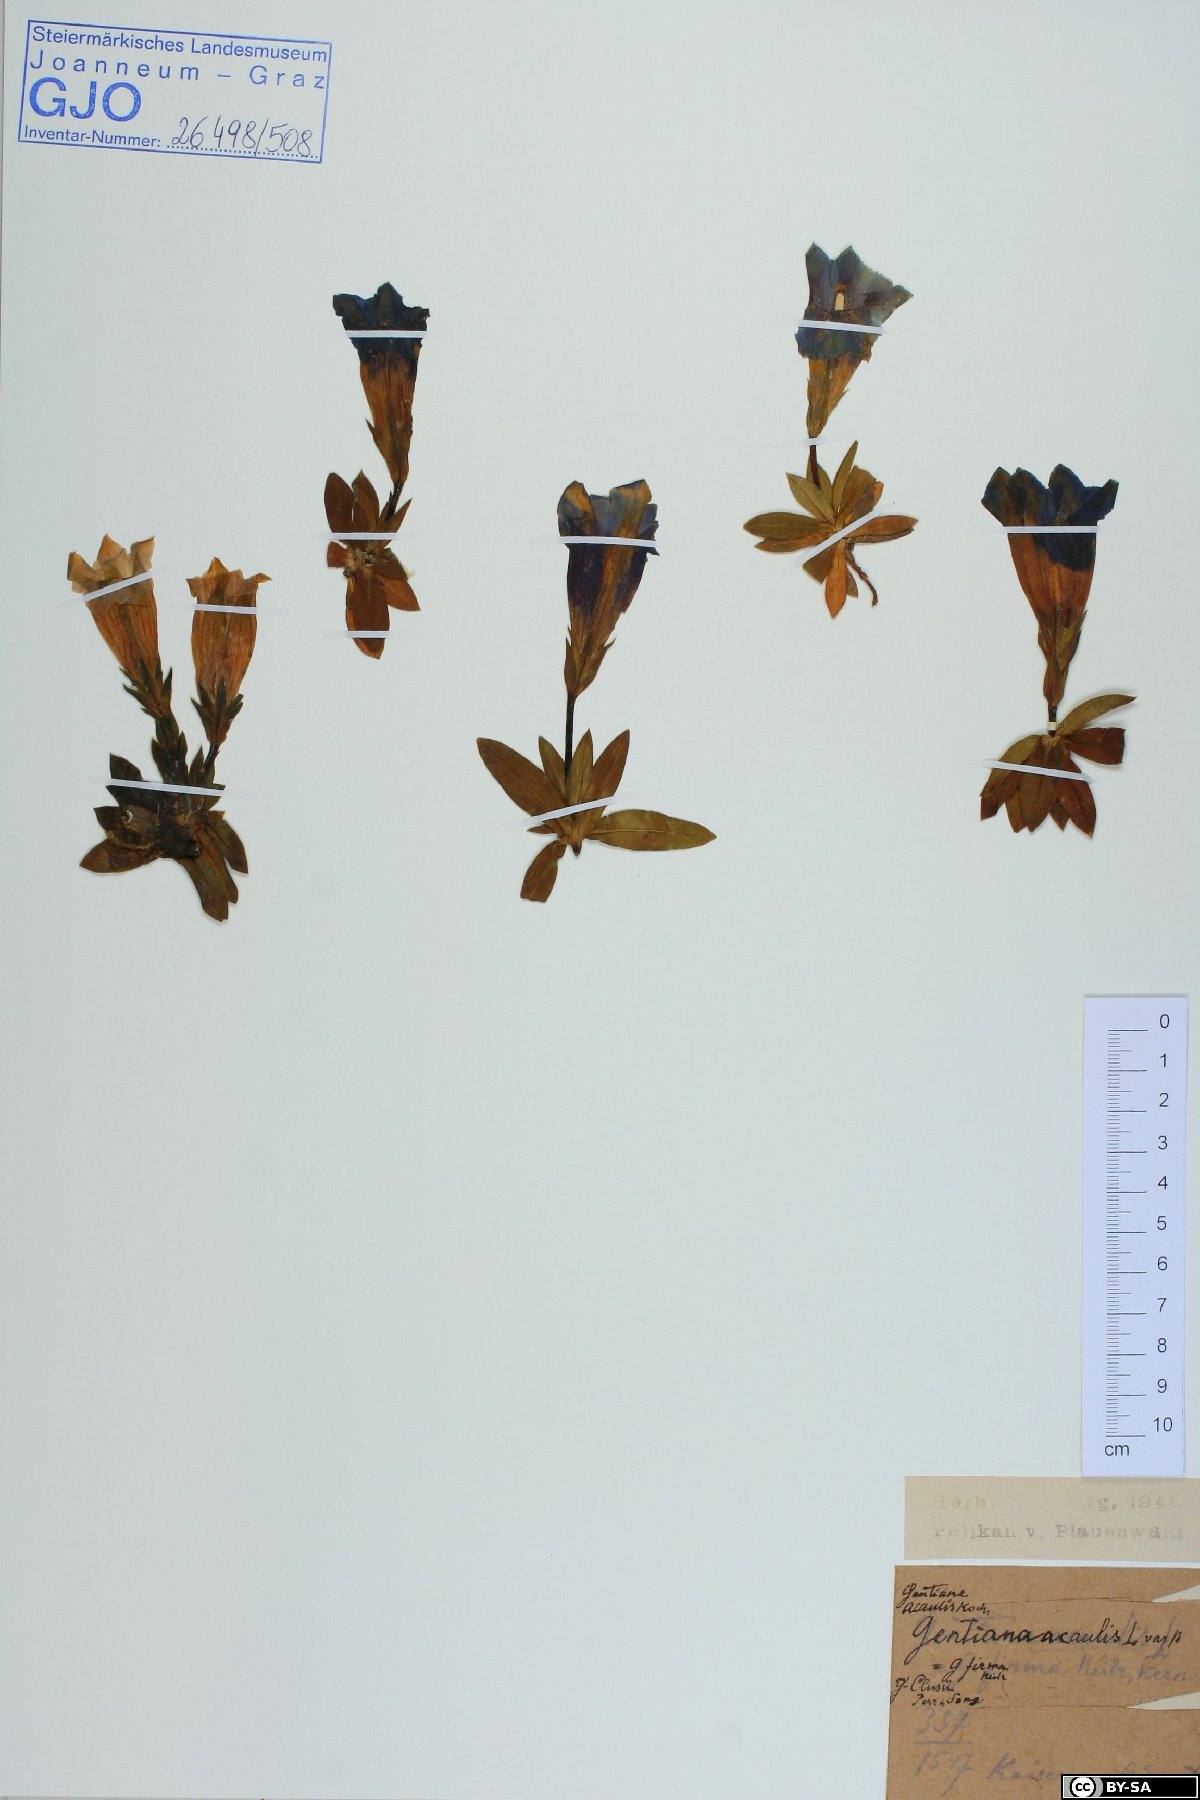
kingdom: Plantae
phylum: Tracheophyta
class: Magnoliopsida
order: Gentianales
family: Gentianaceae
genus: Gentiana
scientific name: Gentiana clusii
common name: Trumpet gentian
